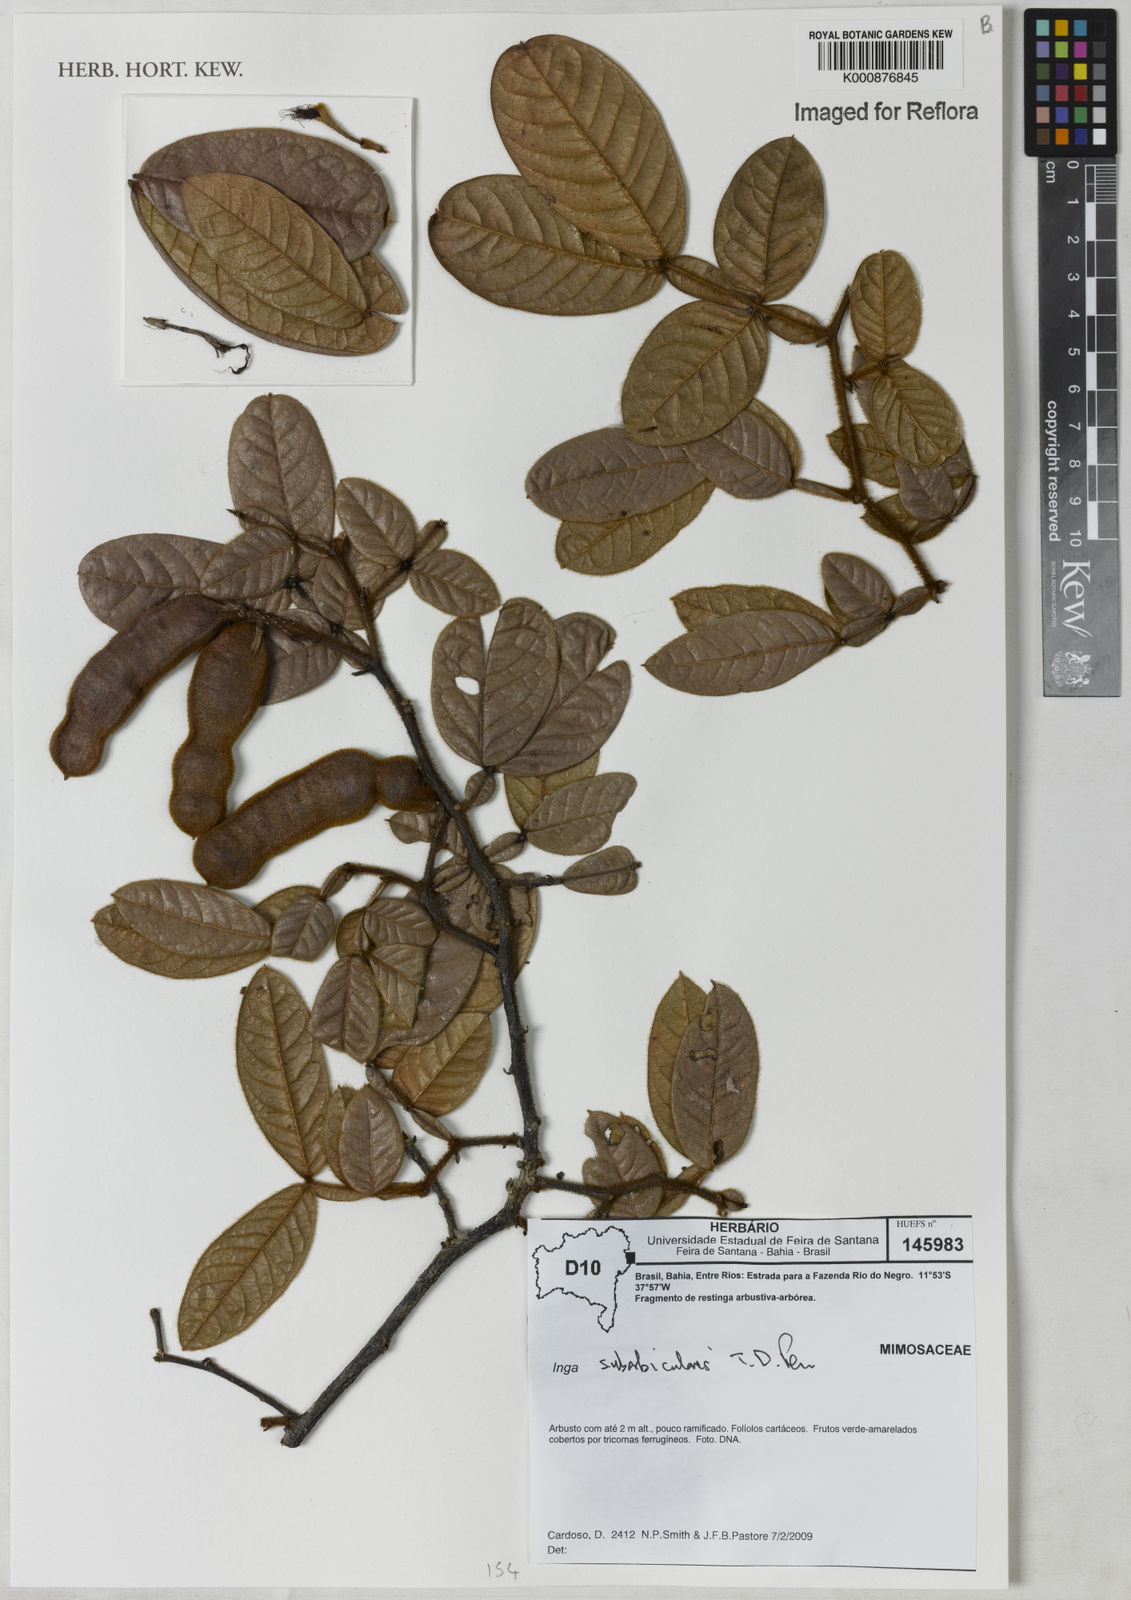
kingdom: Plantae
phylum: Tracheophyta
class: Magnoliopsida
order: Fabales
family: Fabaceae
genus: Inga
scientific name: Inga suborbicularis
